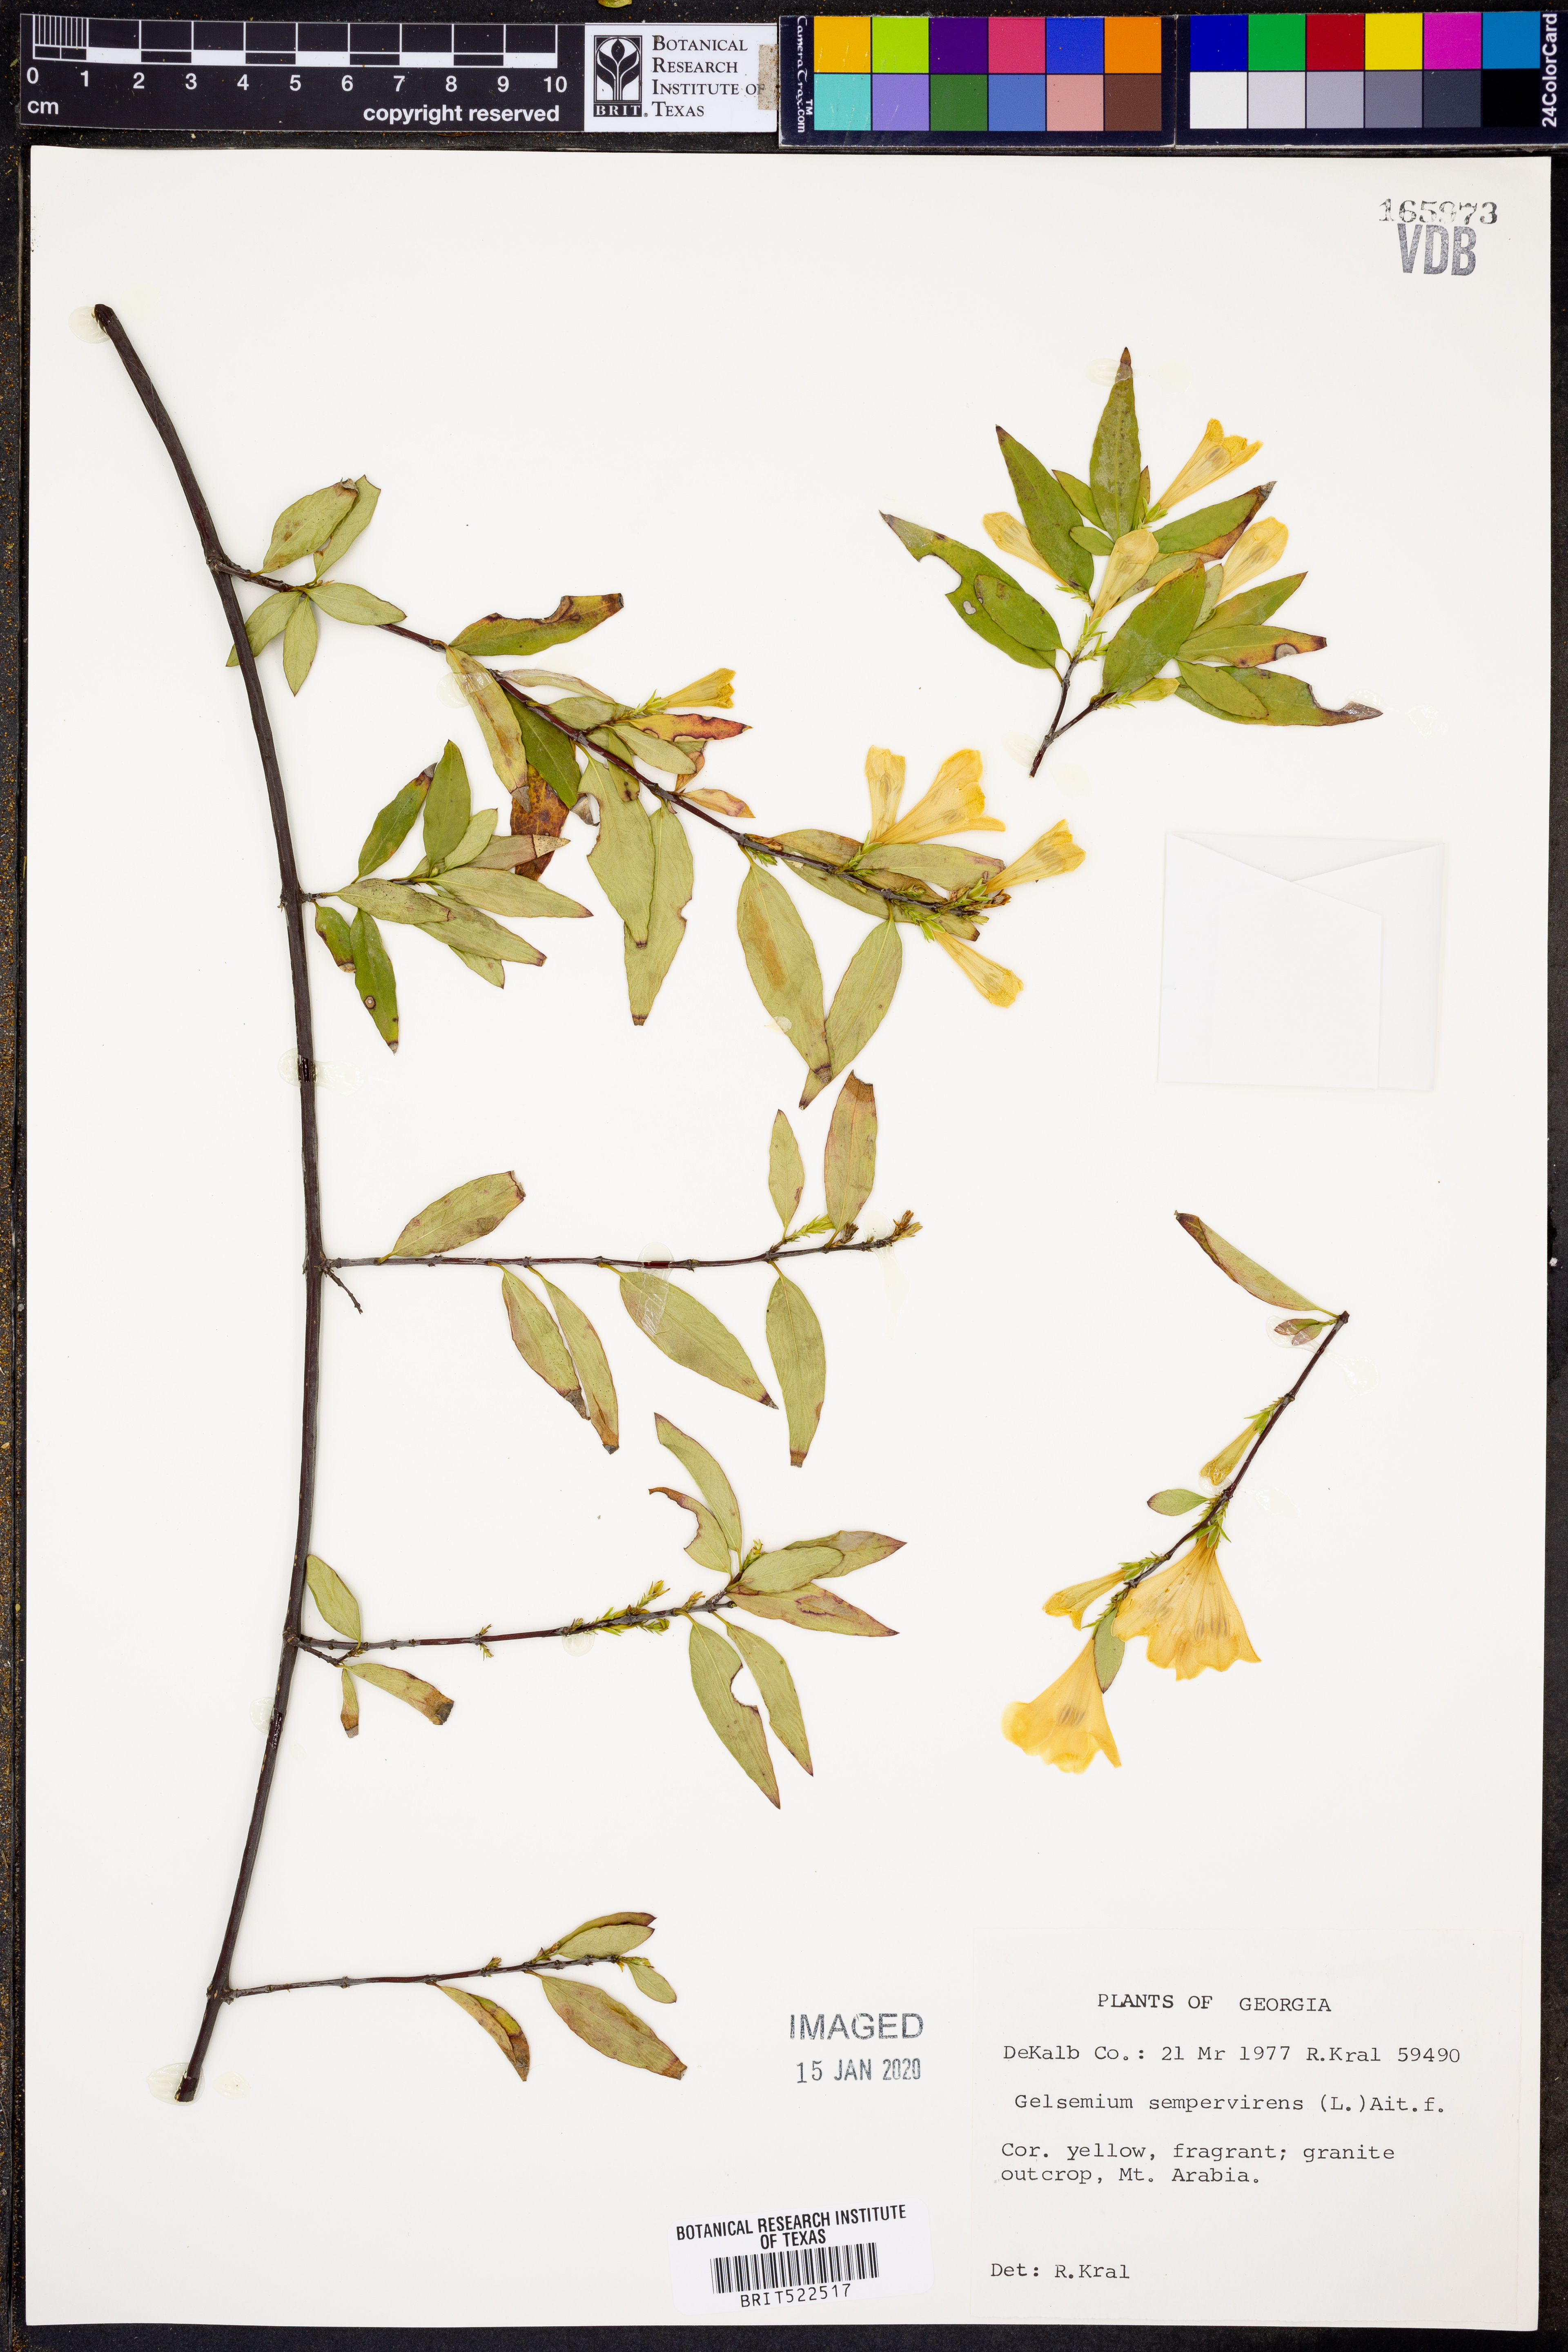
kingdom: Plantae
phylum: Tracheophyta
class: Magnoliopsida
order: Gentianales
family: Gelsemiaceae
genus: Gelsemium
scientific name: Gelsemium sempervirens
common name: Carolina-jasmine
